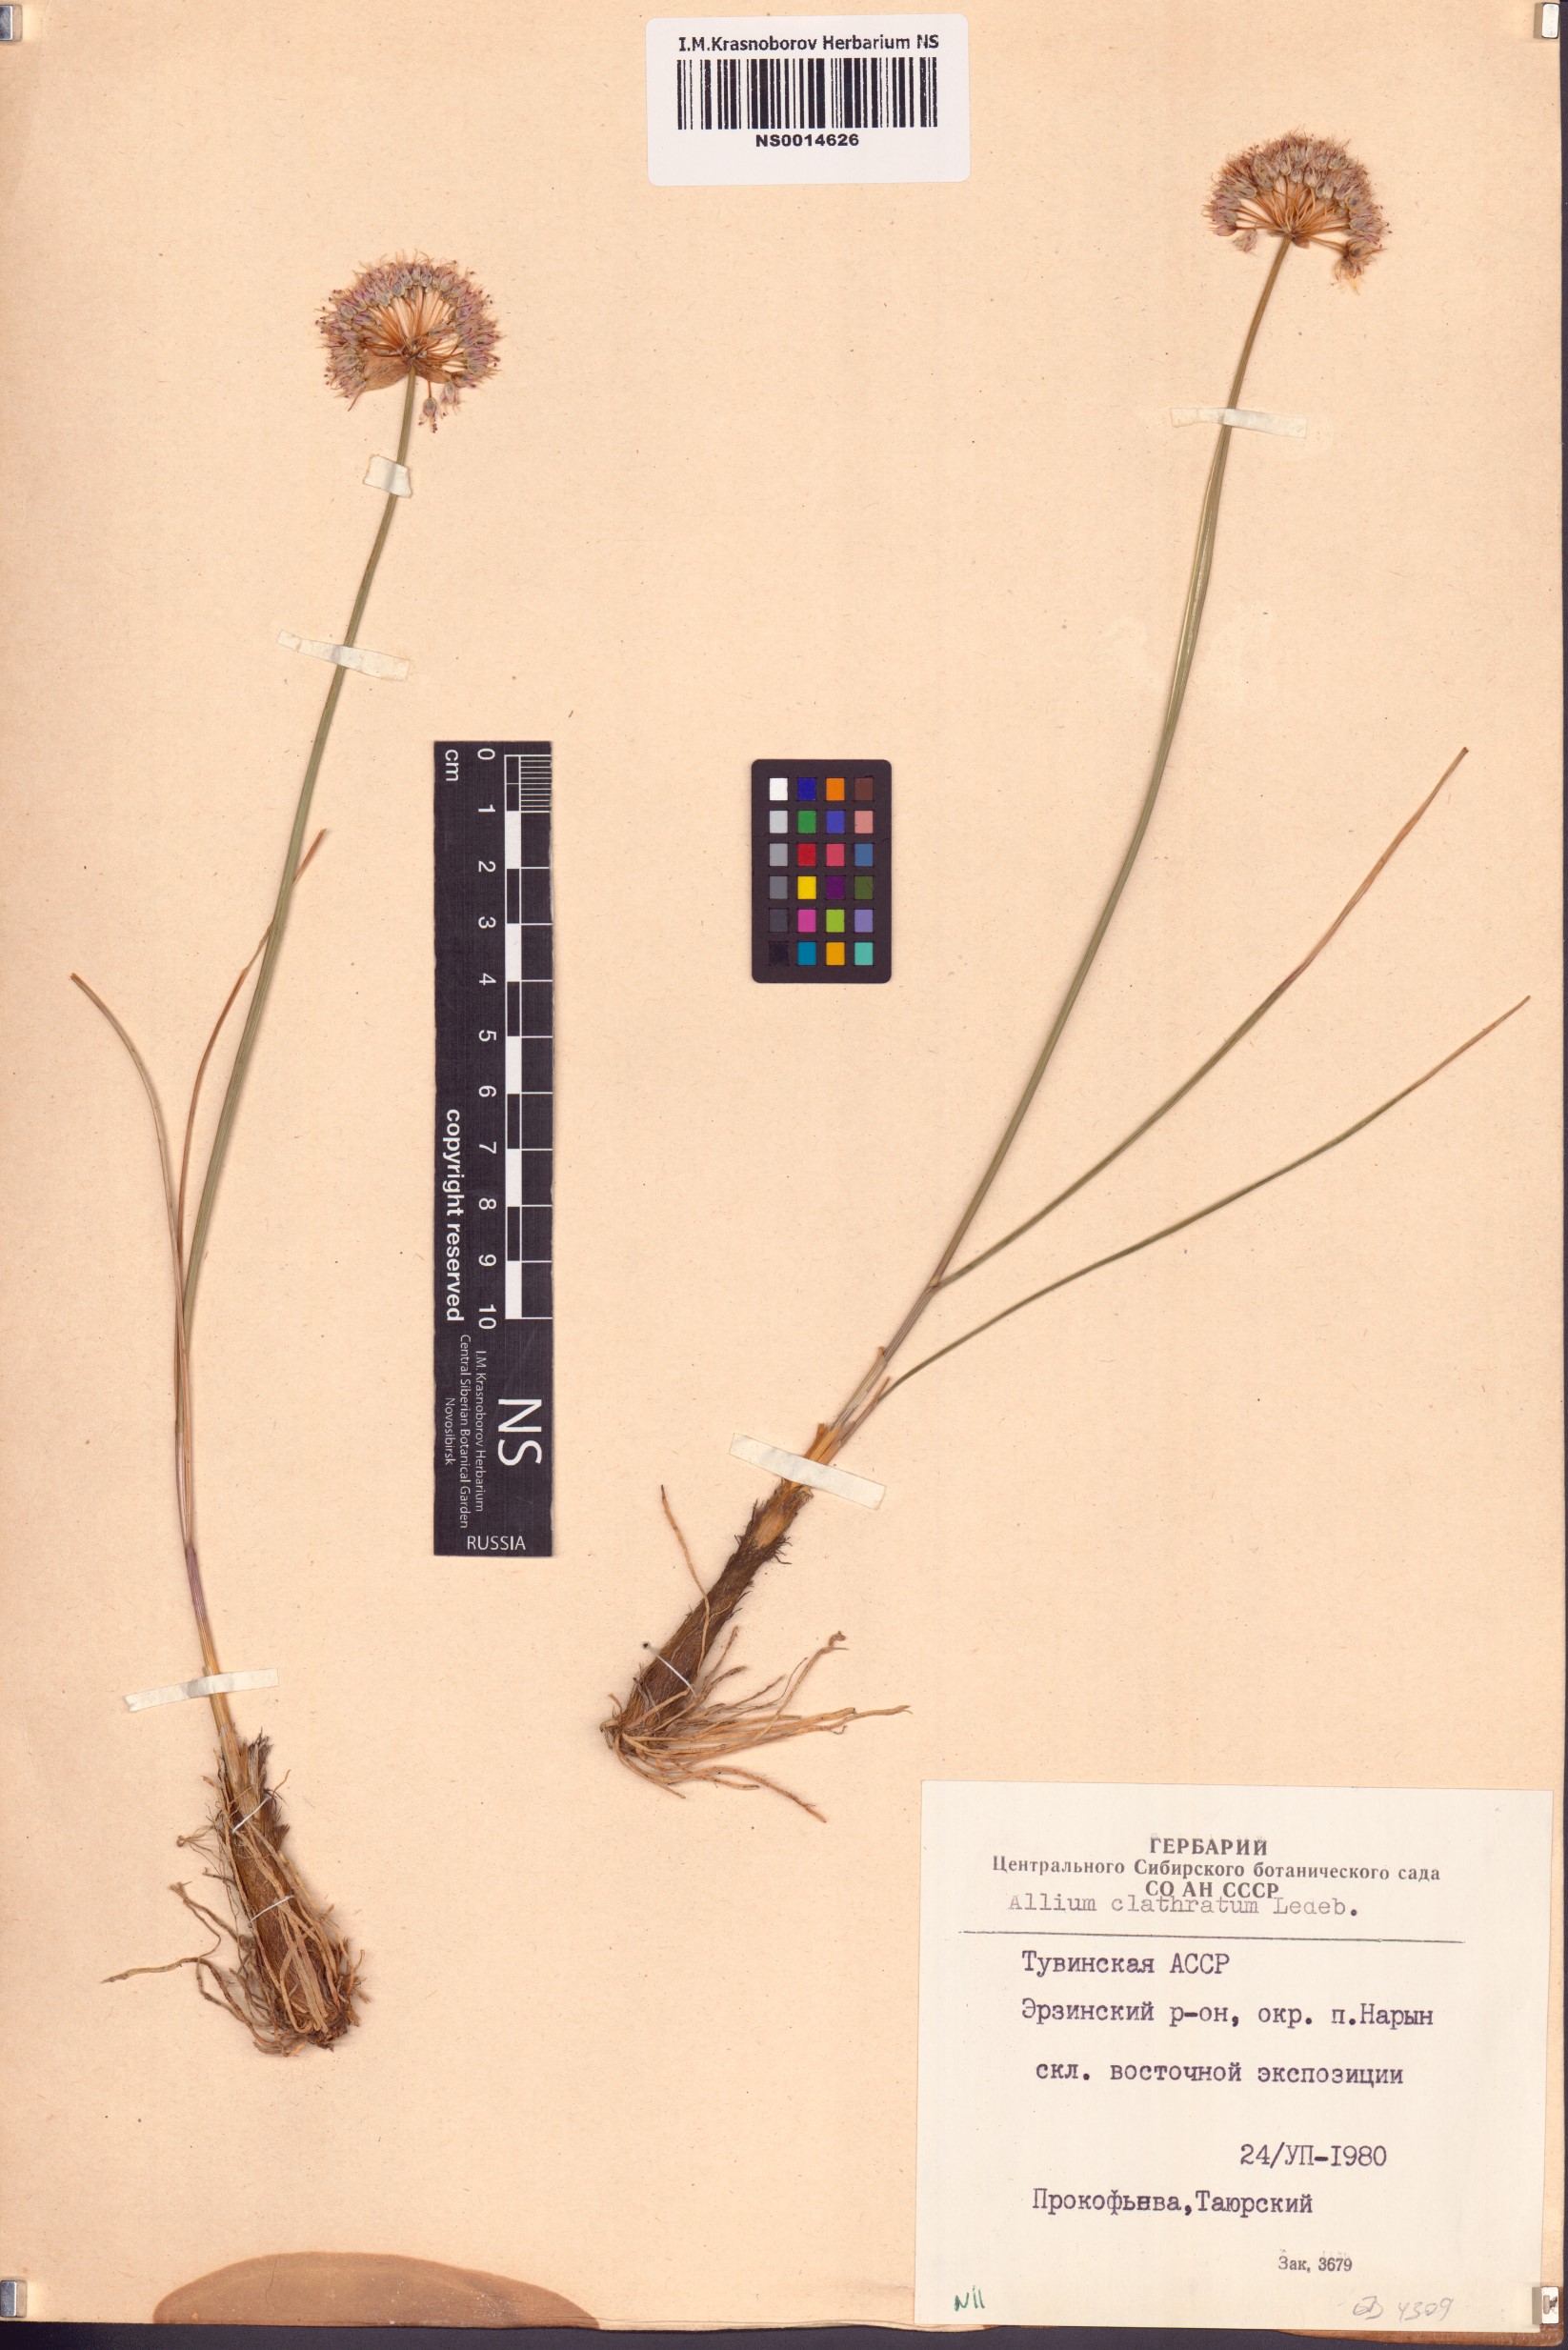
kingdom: Plantae
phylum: Tracheophyta
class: Liliopsida
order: Asparagales
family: Amaryllidaceae
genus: Allium
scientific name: Allium clathratum
